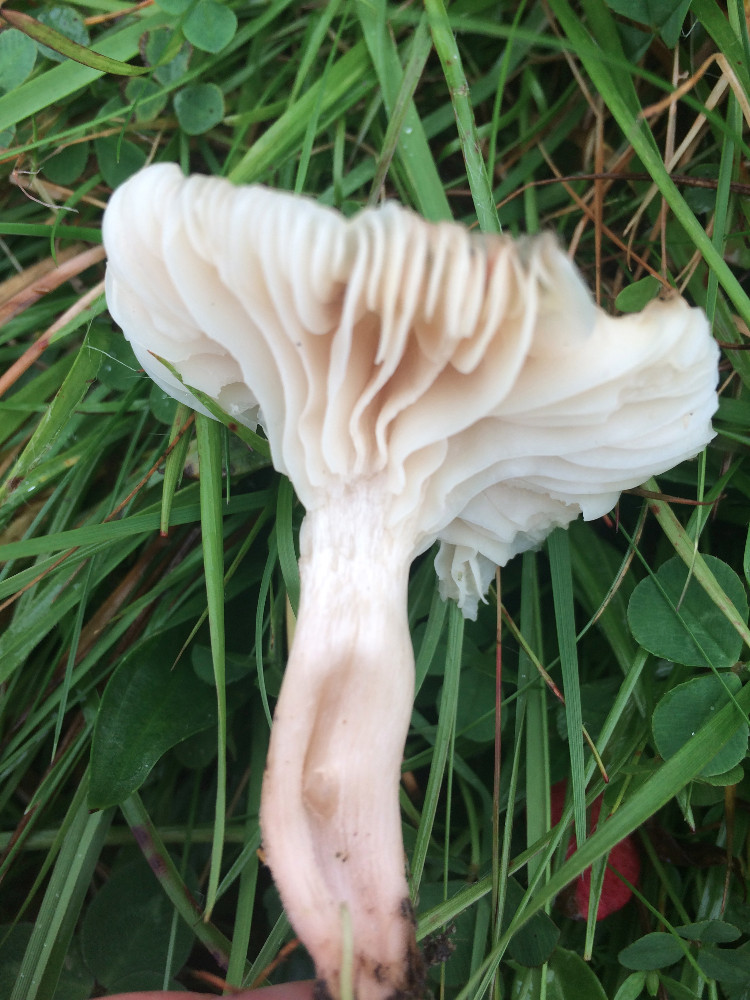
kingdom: Fungi
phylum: Basidiomycota
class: Agaricomycetes
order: Agaricales
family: Hygrophoraceae
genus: Cuphophyllus
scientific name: Cuphophyllus virgineus
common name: snehvid vokshat
